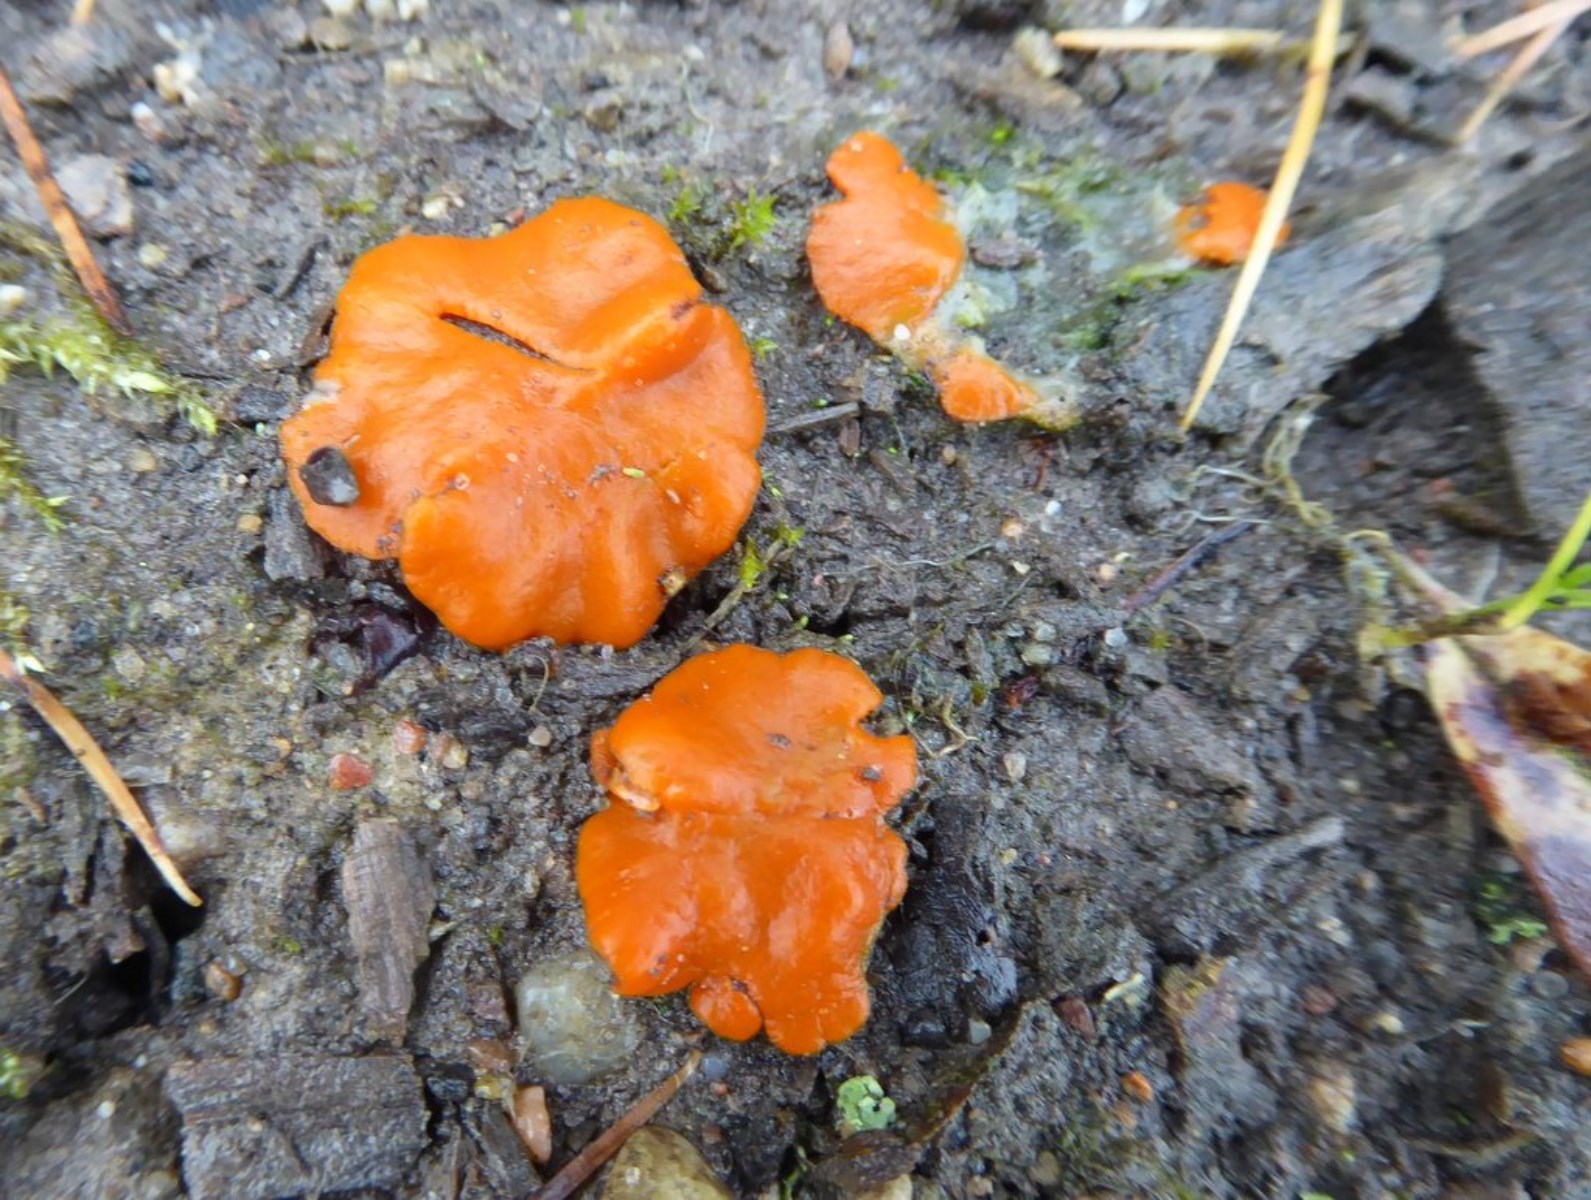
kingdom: Fungi
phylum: Ascomycota
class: Pezizomycetes
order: Pezizales
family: Pyronemataceae
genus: Melastiza
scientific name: Melastiza
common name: rødbæger
